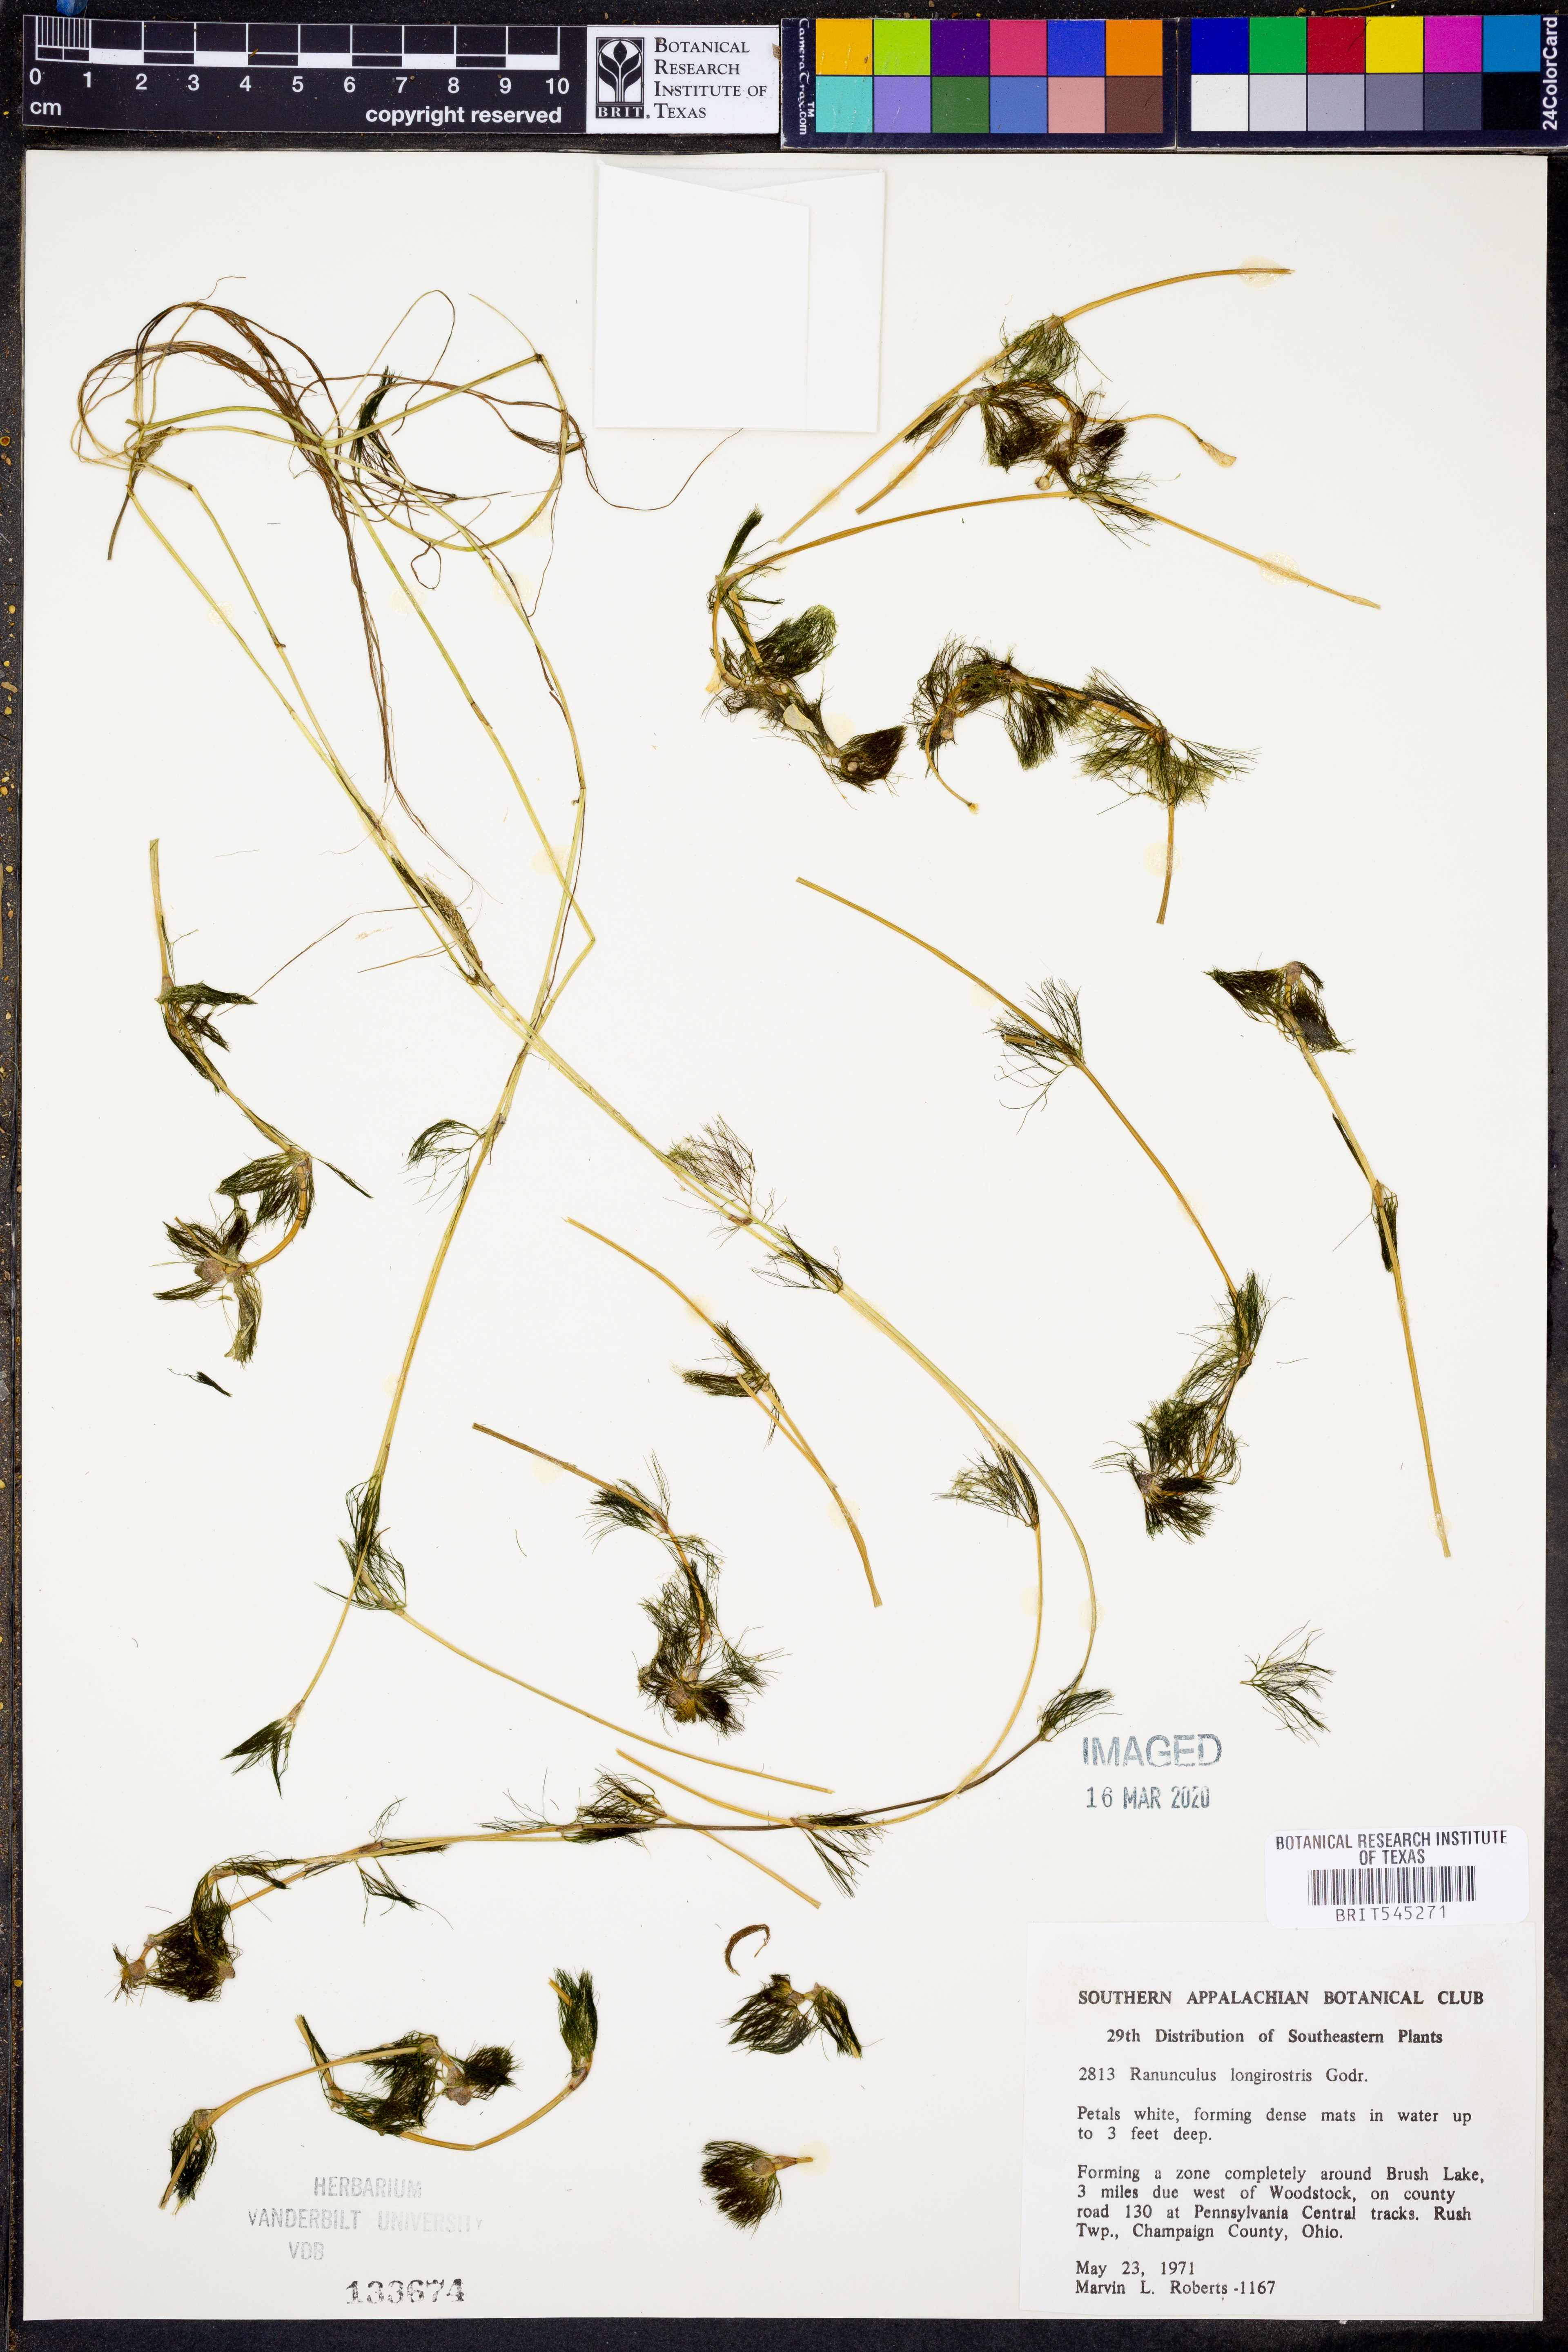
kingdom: Plantae
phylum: Tracheophyta
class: Magnoliopsida
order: Ranunculales
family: Ranunculaceae
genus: Ranunculus
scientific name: Ranunculus longirostris
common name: Curly white water-crowfoot
